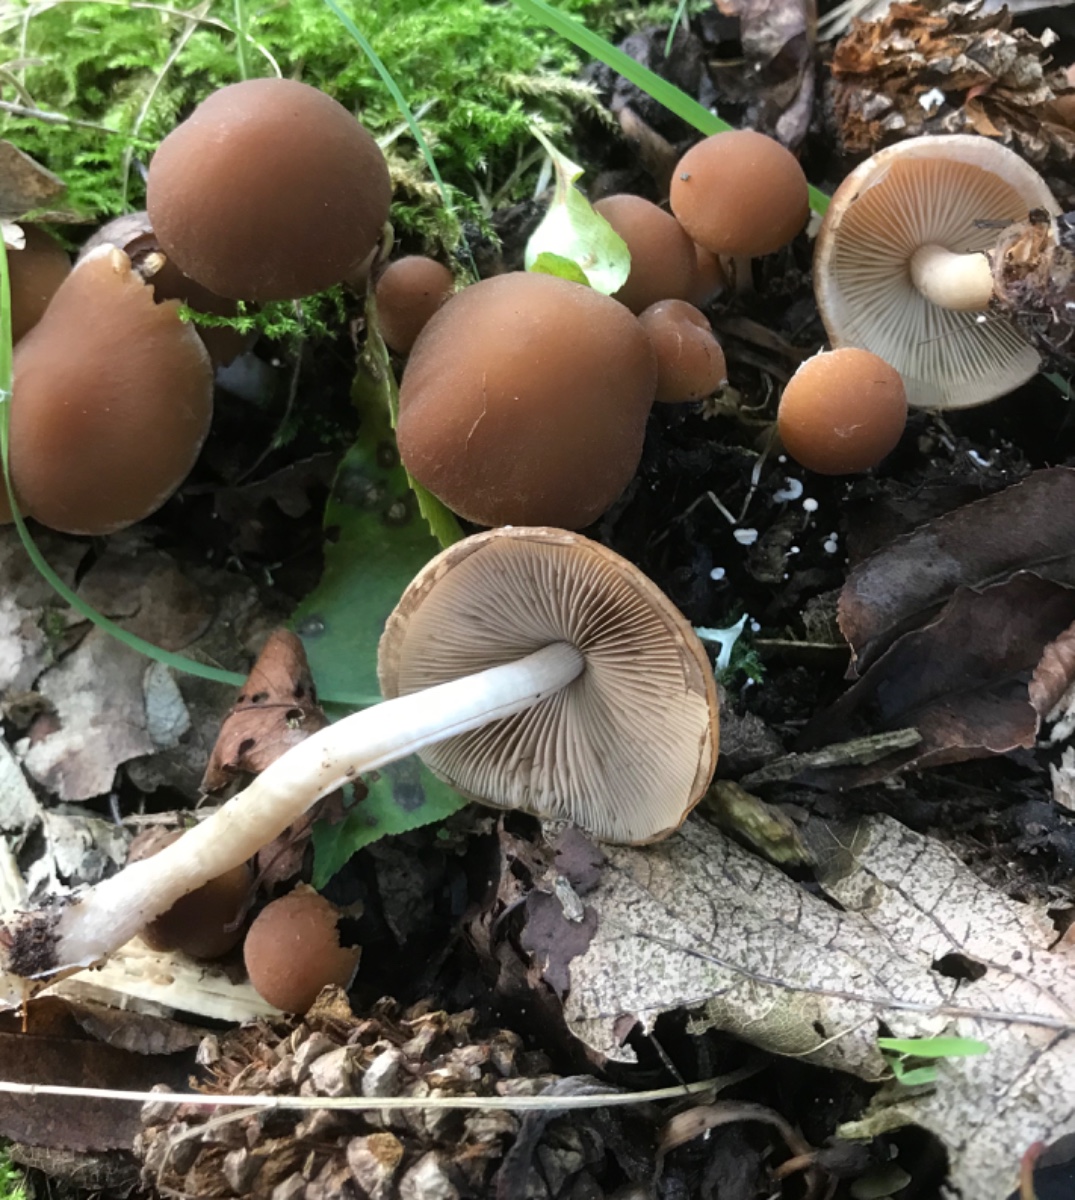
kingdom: Fungi
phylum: Basidiomycota
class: Agaricomycetes
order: Agaricales
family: Psathyrellaceae
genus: Psathyrella
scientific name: Psathyrella piluliformis
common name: lysstokket mørkhat
